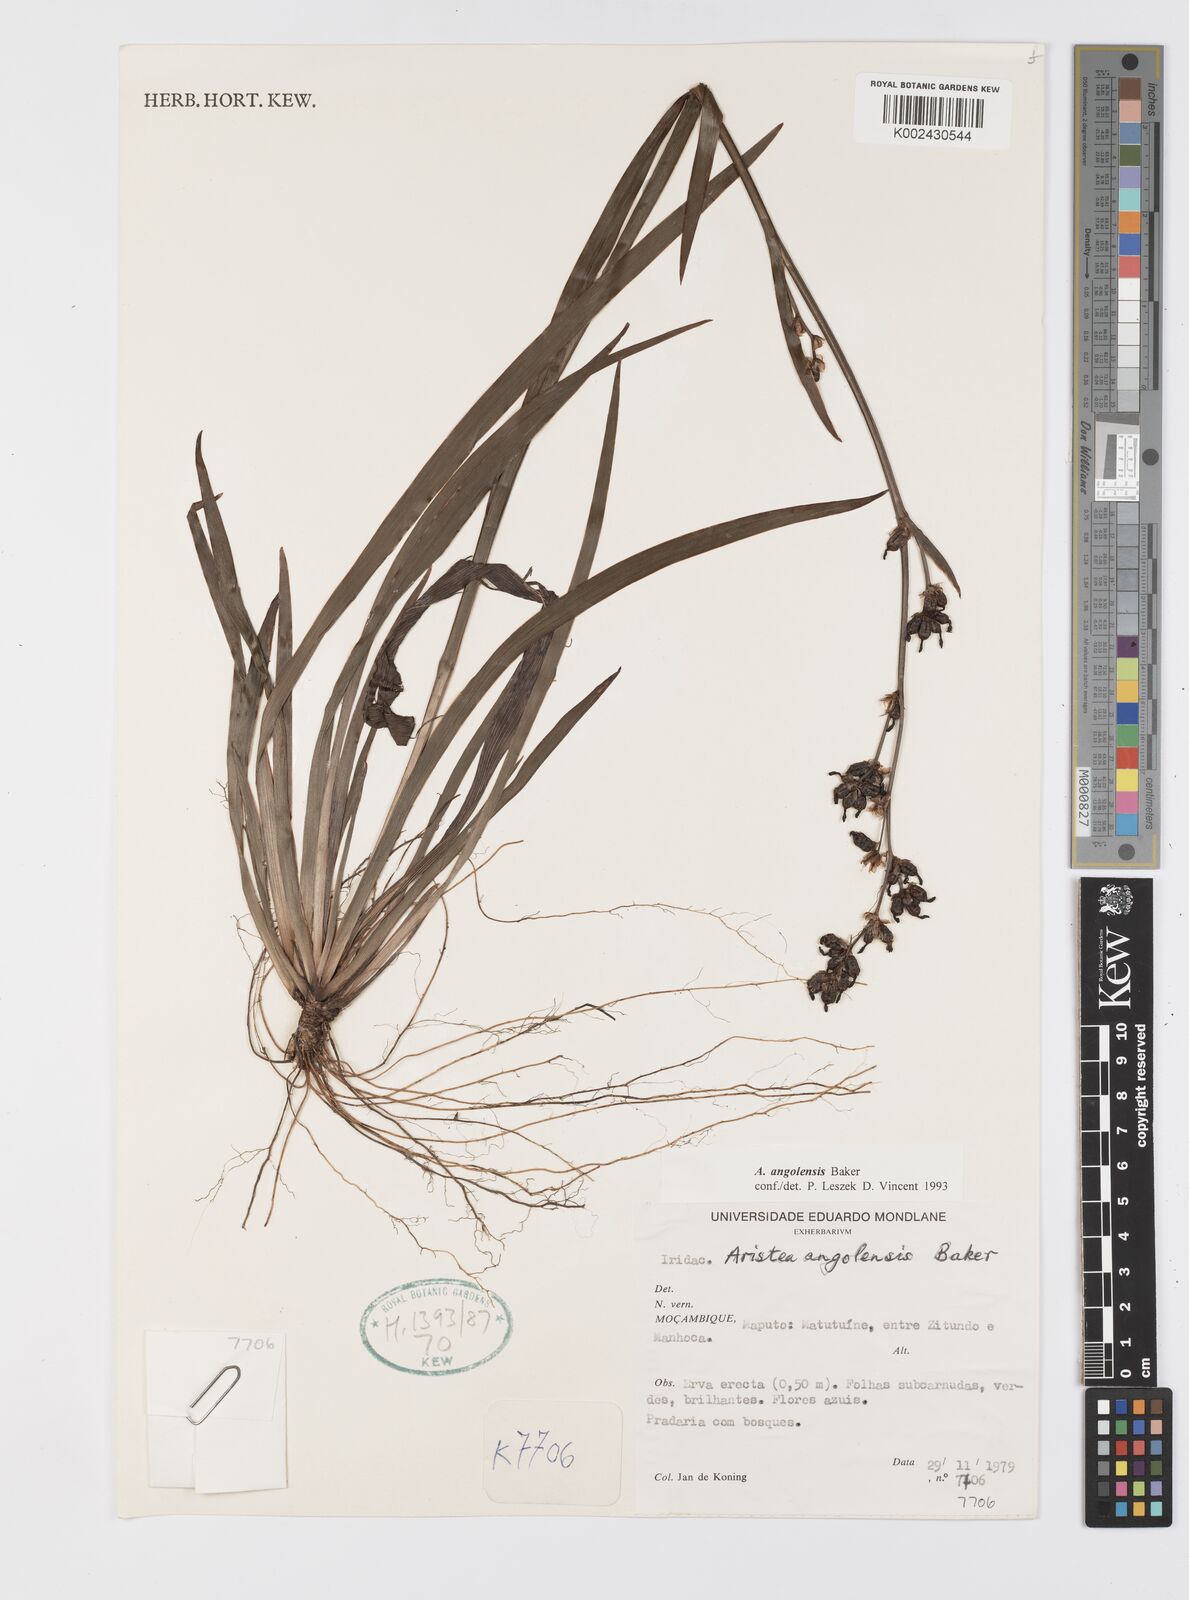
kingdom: Plantae
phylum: Tracheophyta
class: Liliopsida
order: Asparagales
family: Iridaceae
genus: Aristea
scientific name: Aristea angolensis
